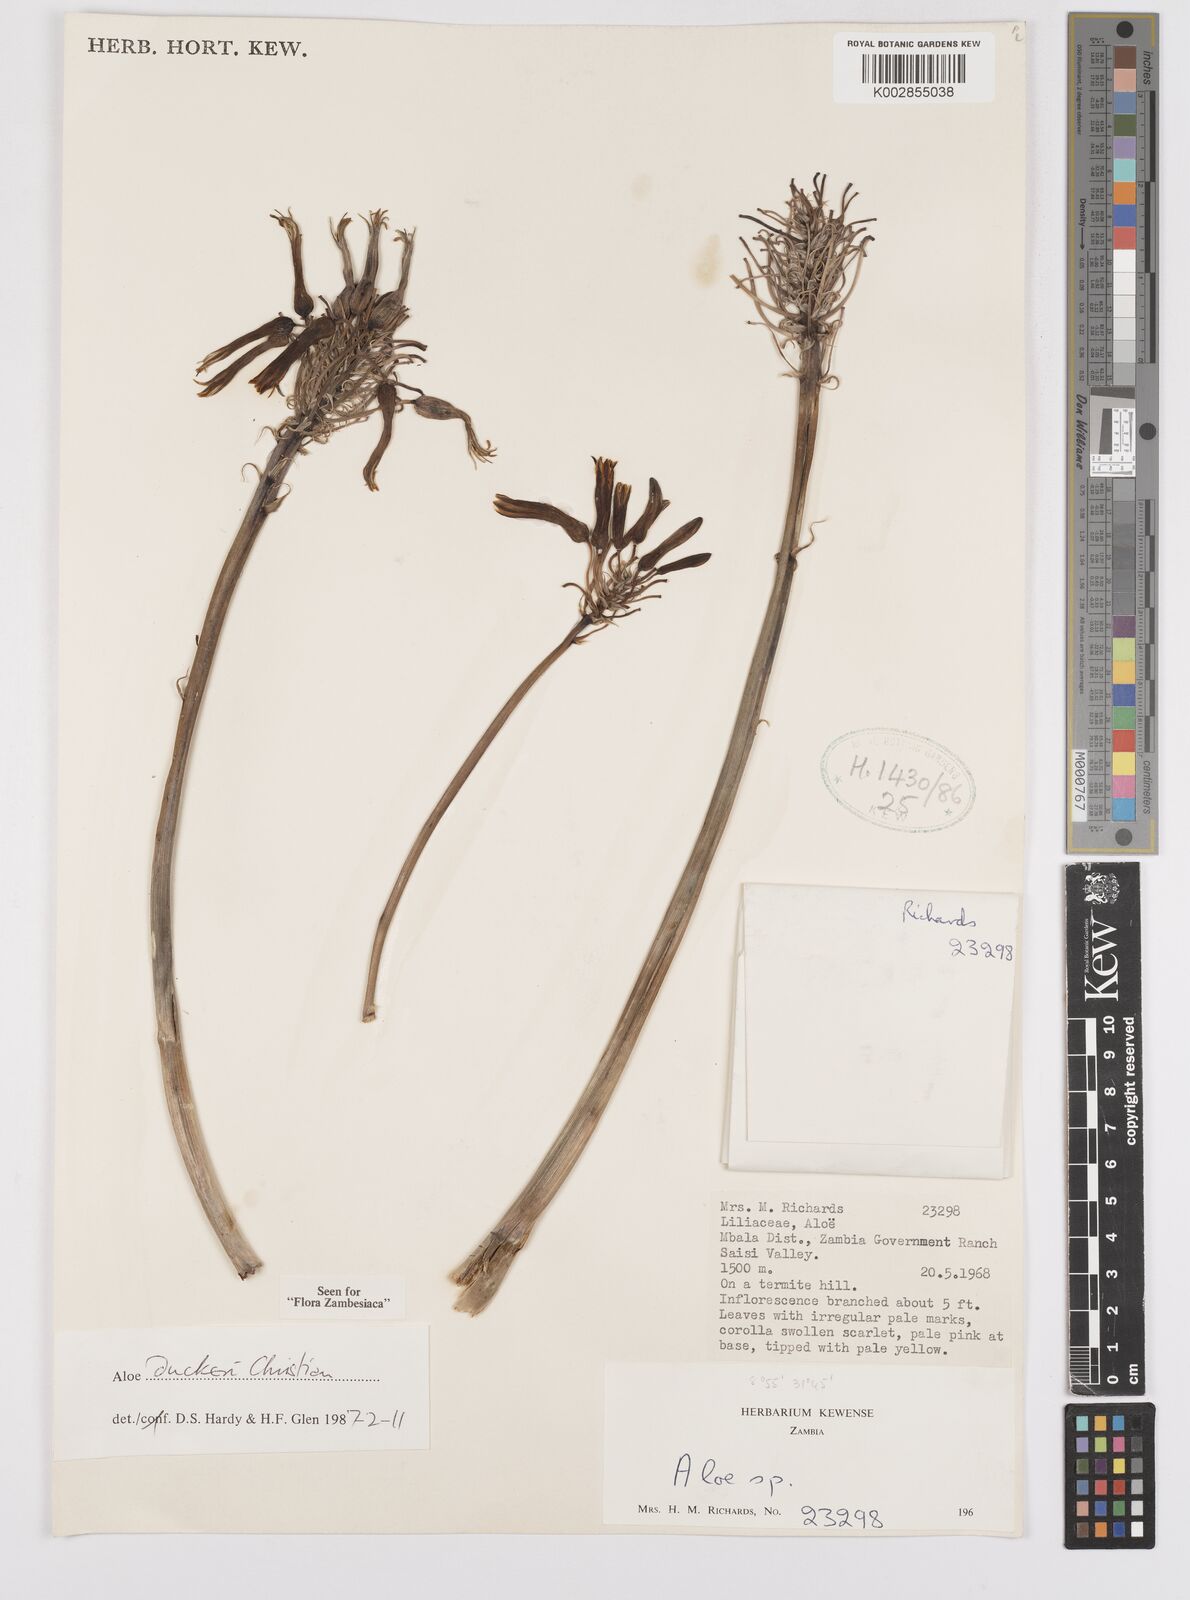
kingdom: Plantae
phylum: Tracheophyta
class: Liliopsida
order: Asparagales
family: Asphodelaceae
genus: Aloe
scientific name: Aloe duckeri
